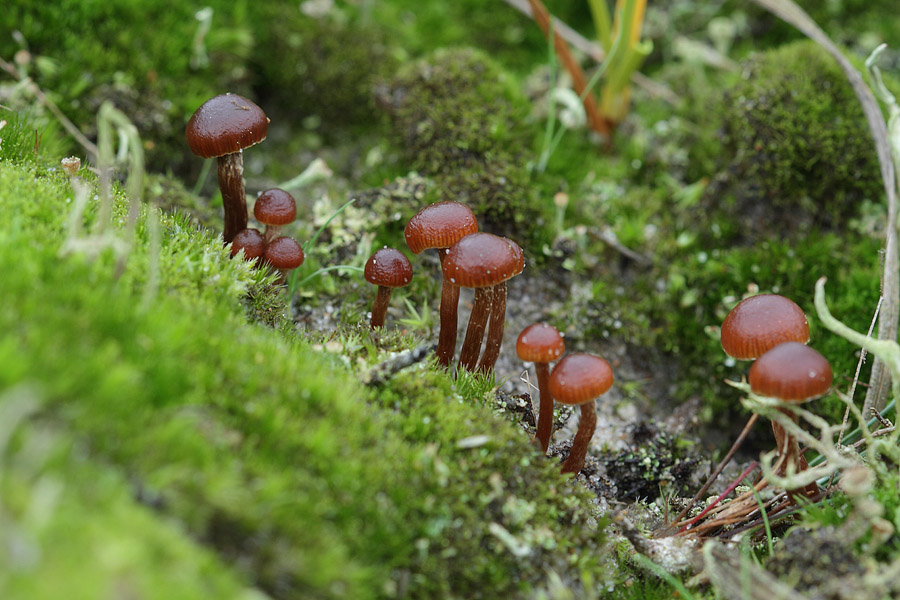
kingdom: Fungi
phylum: Basidiomycota
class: Agaricomycetes
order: Agaricales
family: Strophariaceae
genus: Deconica
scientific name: Deconica montana
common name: rødbrun stråhat
